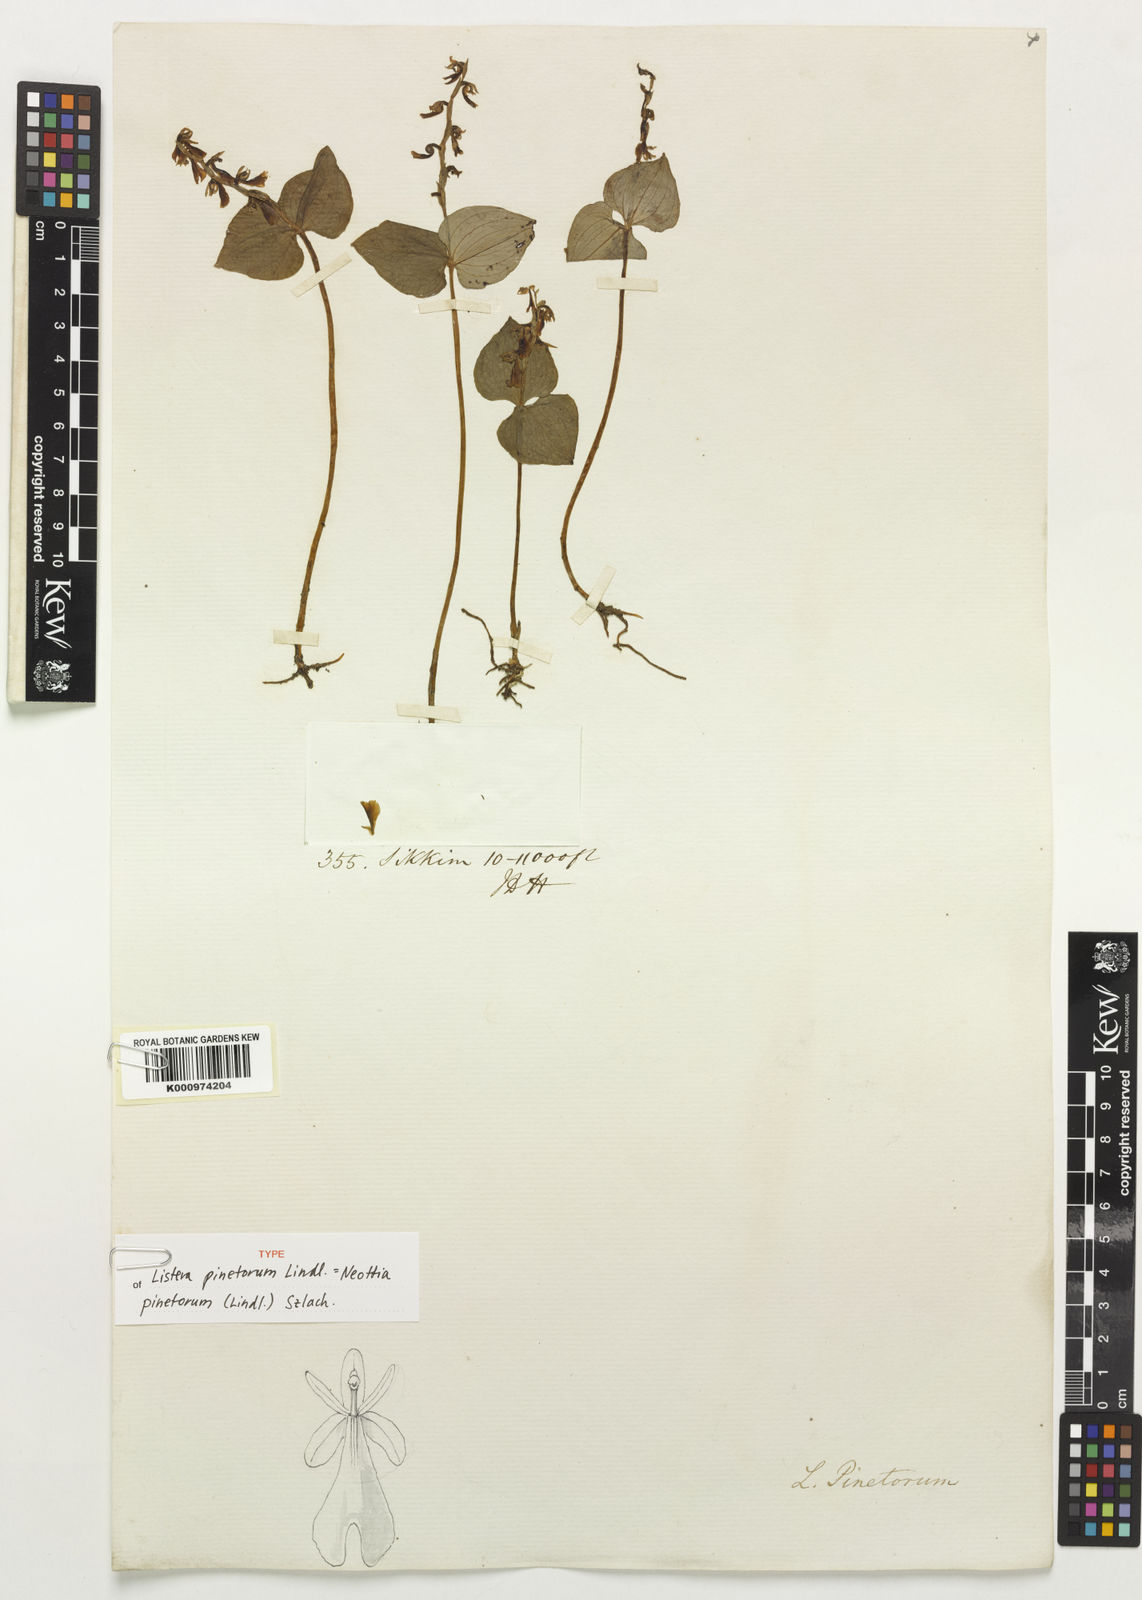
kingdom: Plantae
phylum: Tracheophyta
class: Liliopsida
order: Asparagales
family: Orchidaceae
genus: Neottia
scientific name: Neottia pinetorum
